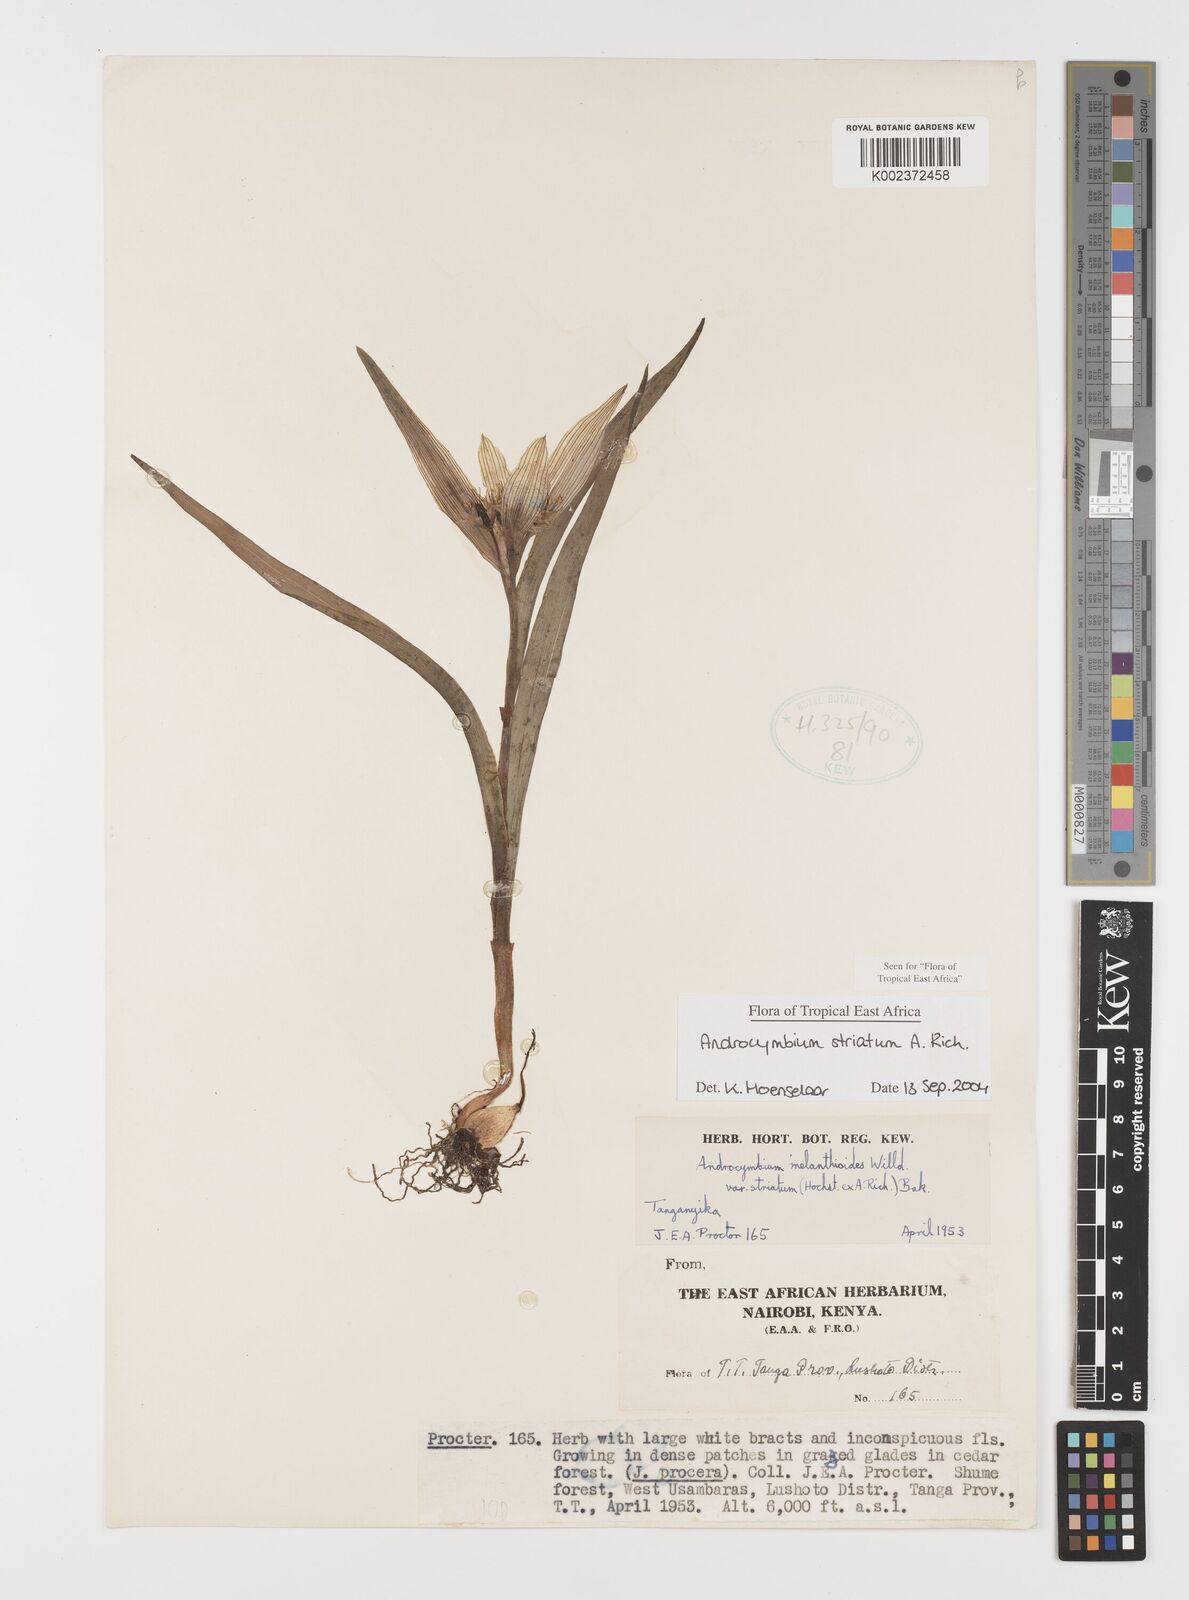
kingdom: Plantae
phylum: Tracheophyta
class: Liliopsida
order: Liliales
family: Colchicaceae
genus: Colchicum
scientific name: Colchicum striatum
